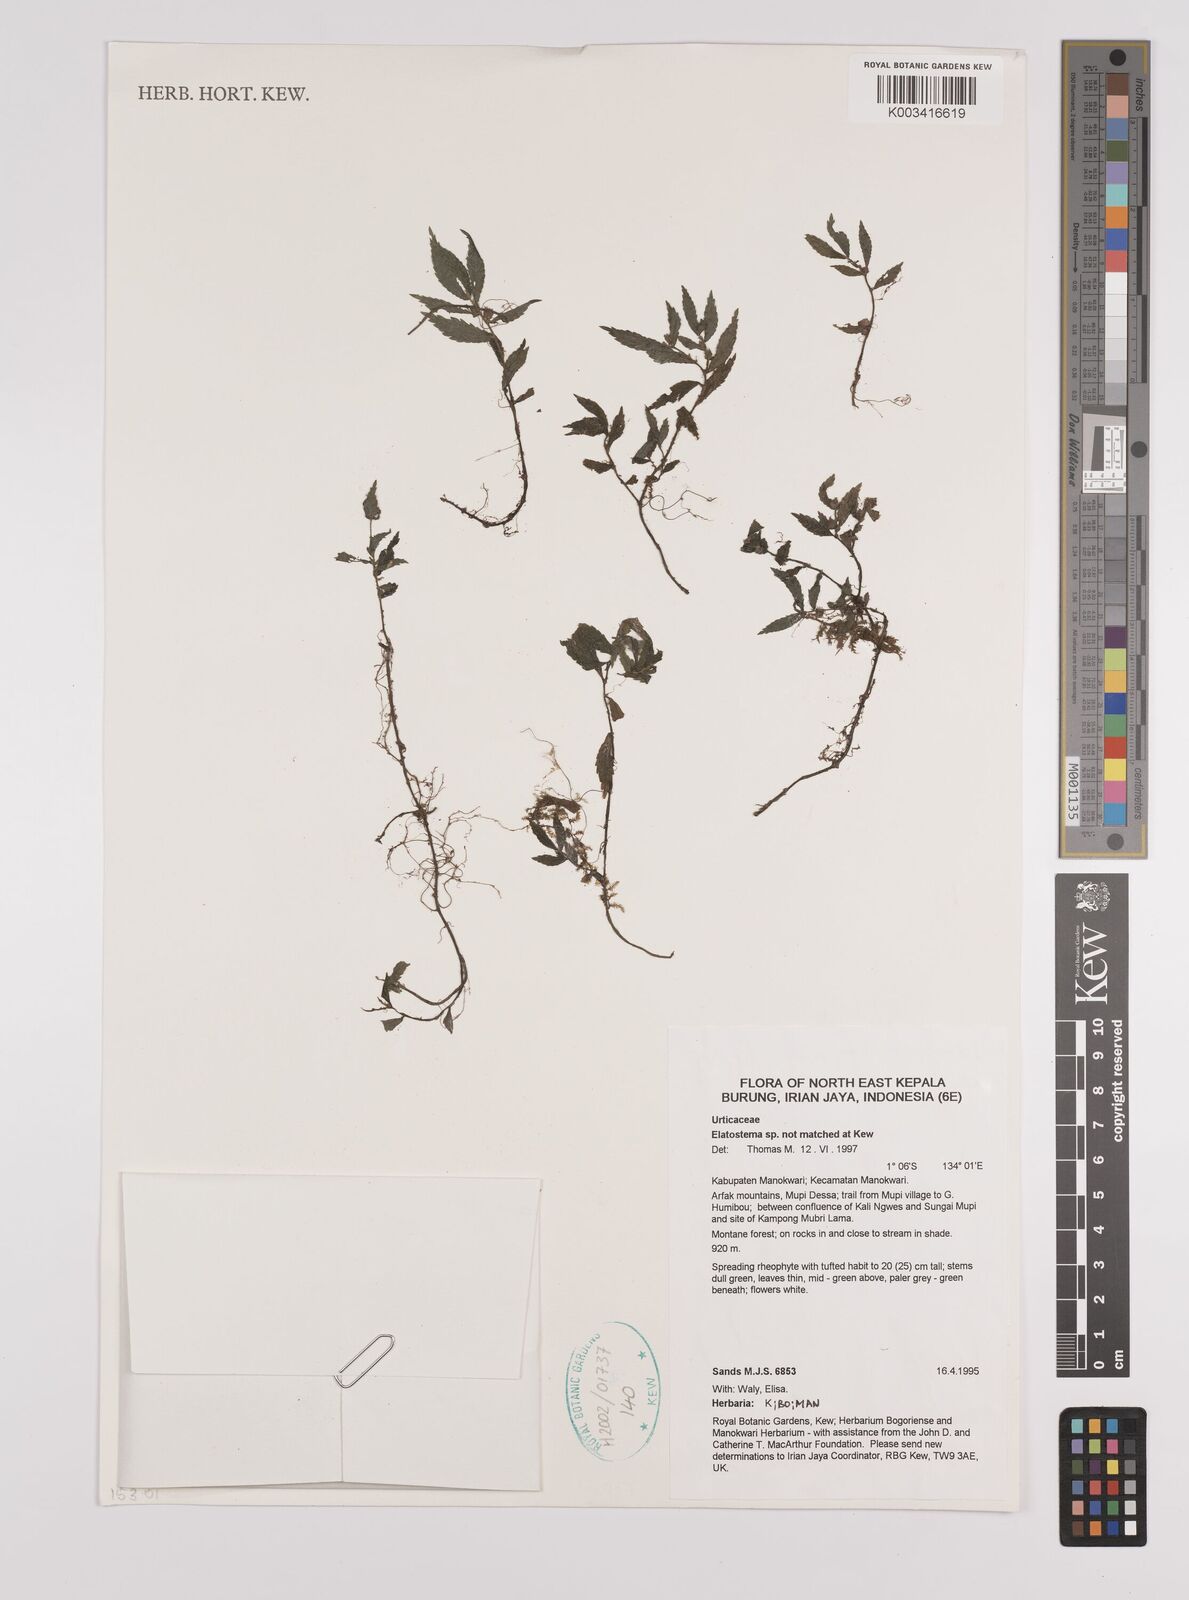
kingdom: Plantae
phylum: Tracheophyta
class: Magnoliopsida
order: Rosales
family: Urticaceae
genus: Elatostema
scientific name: Elatostema
